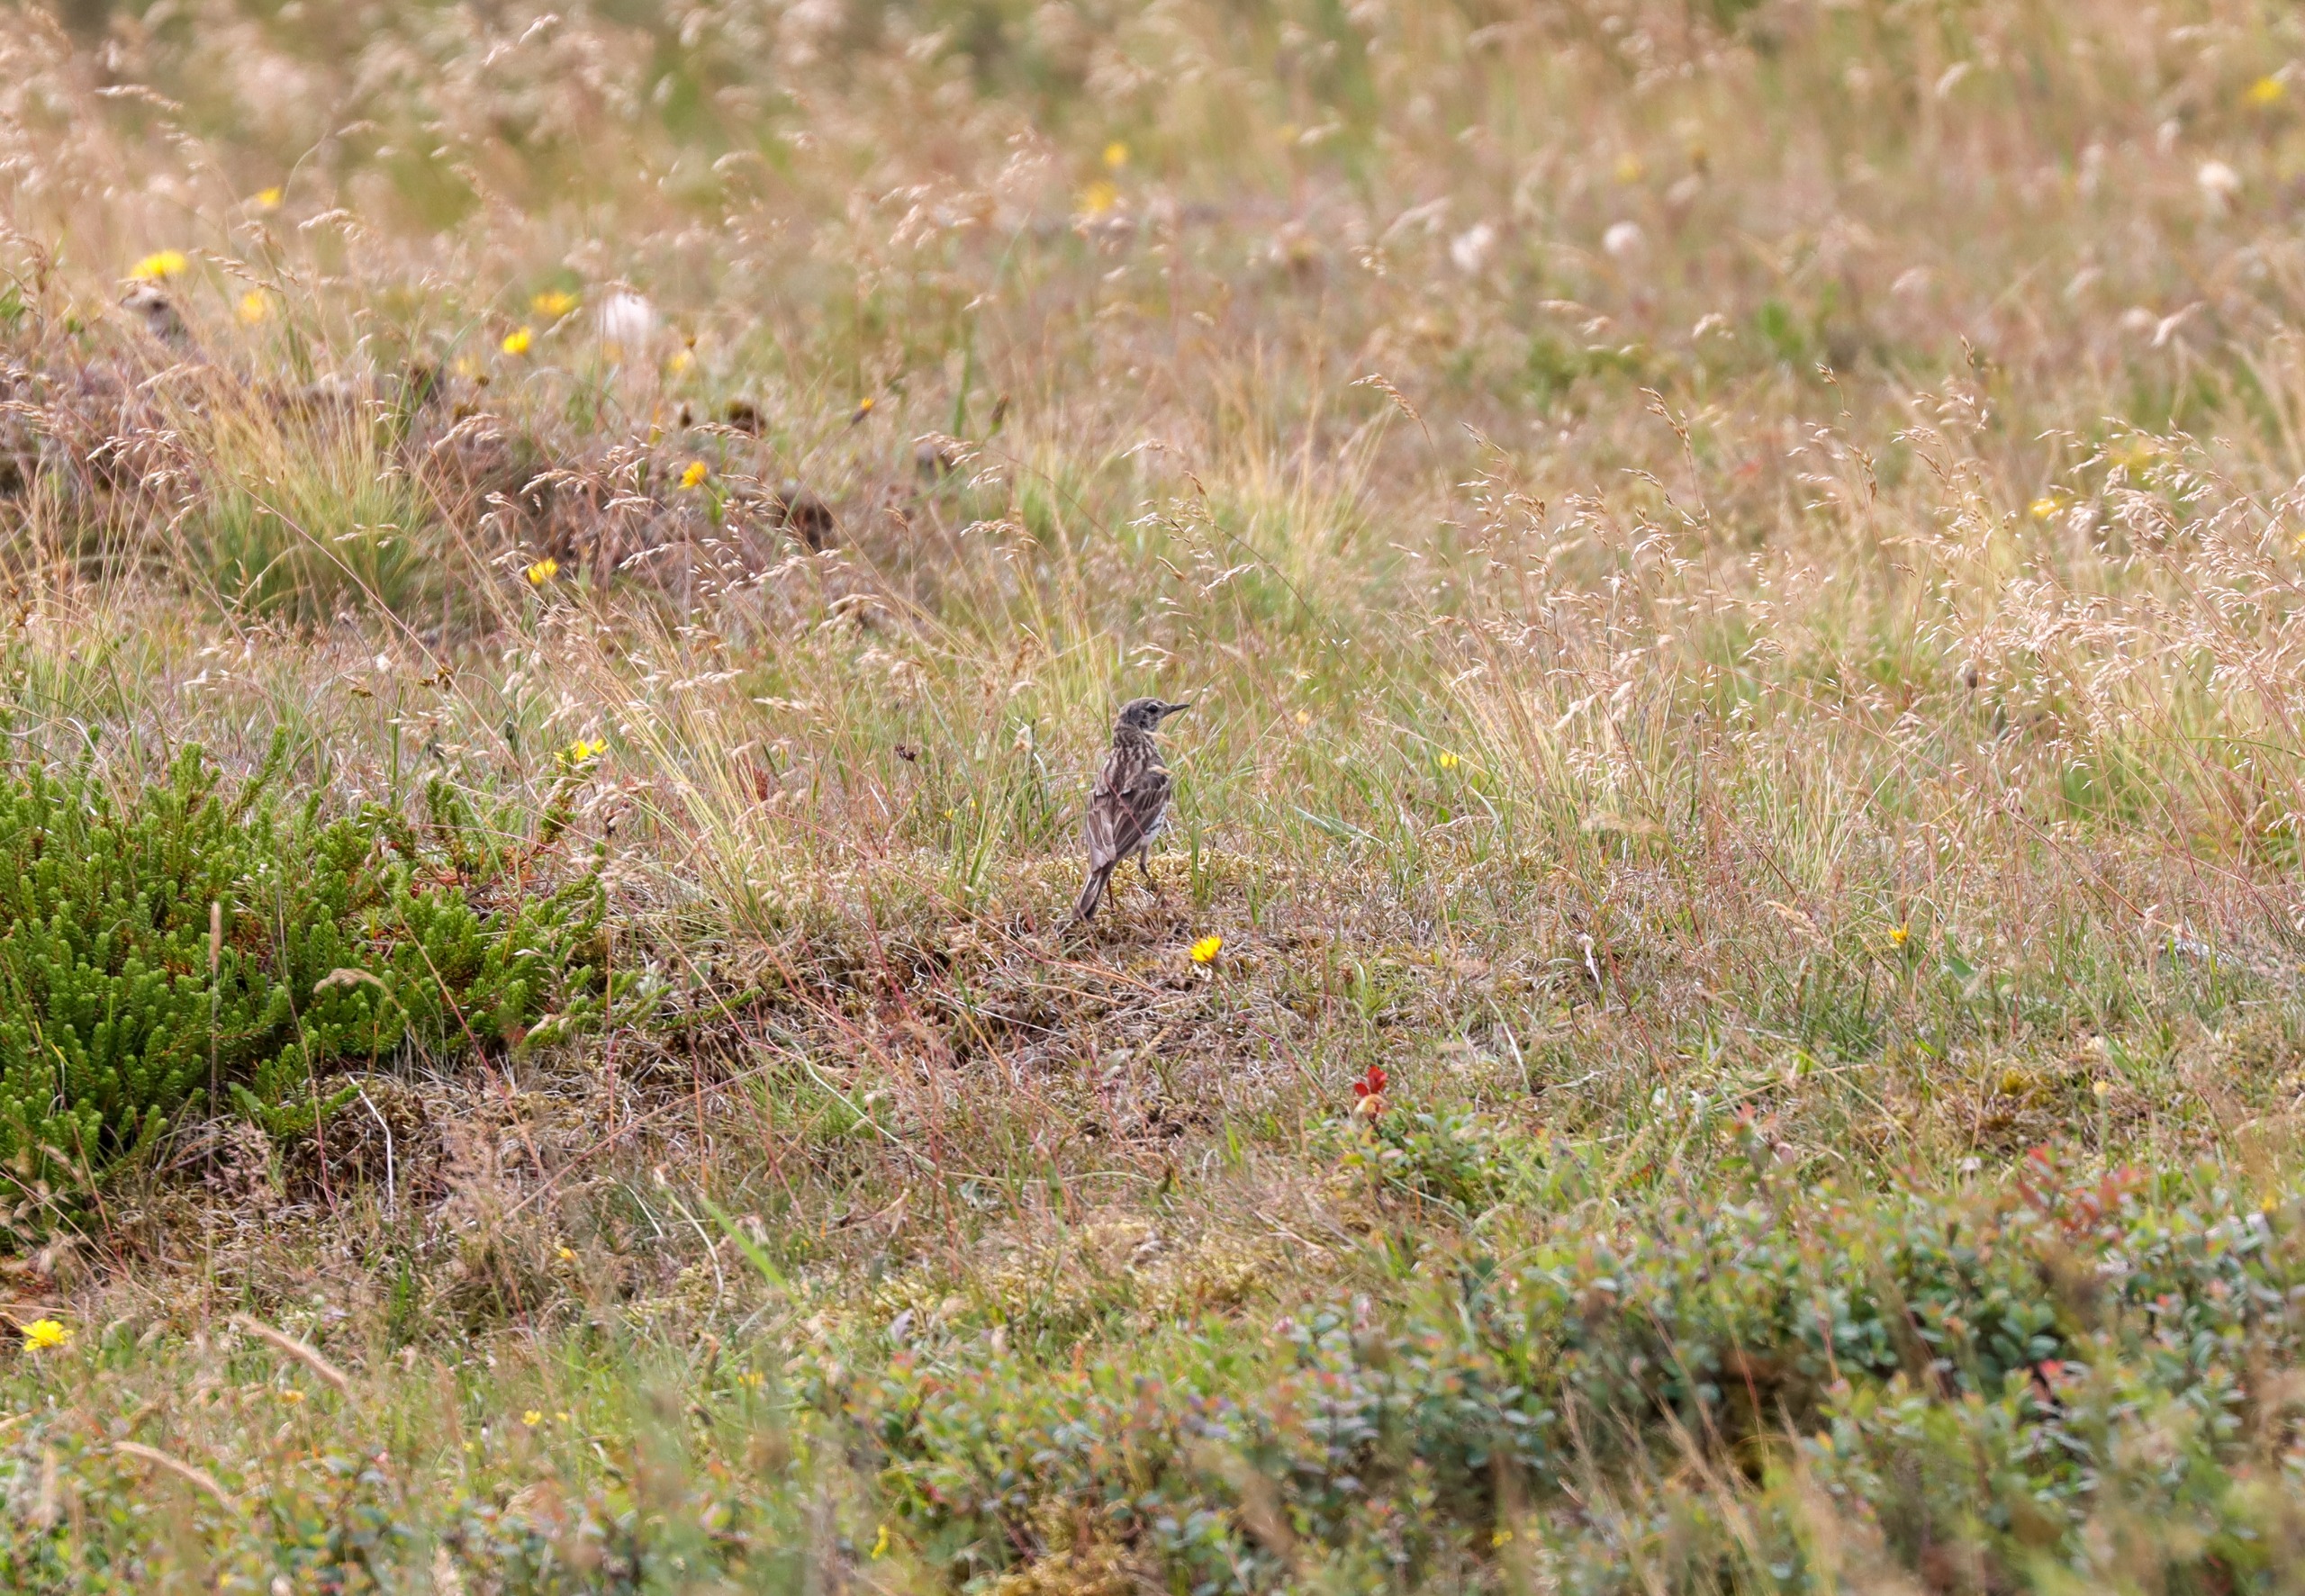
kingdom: Animalia
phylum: Chordata
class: Aves
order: Passeriformes
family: Motacillidae
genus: Anthus
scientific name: Anthus pratensis
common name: Engpiber
